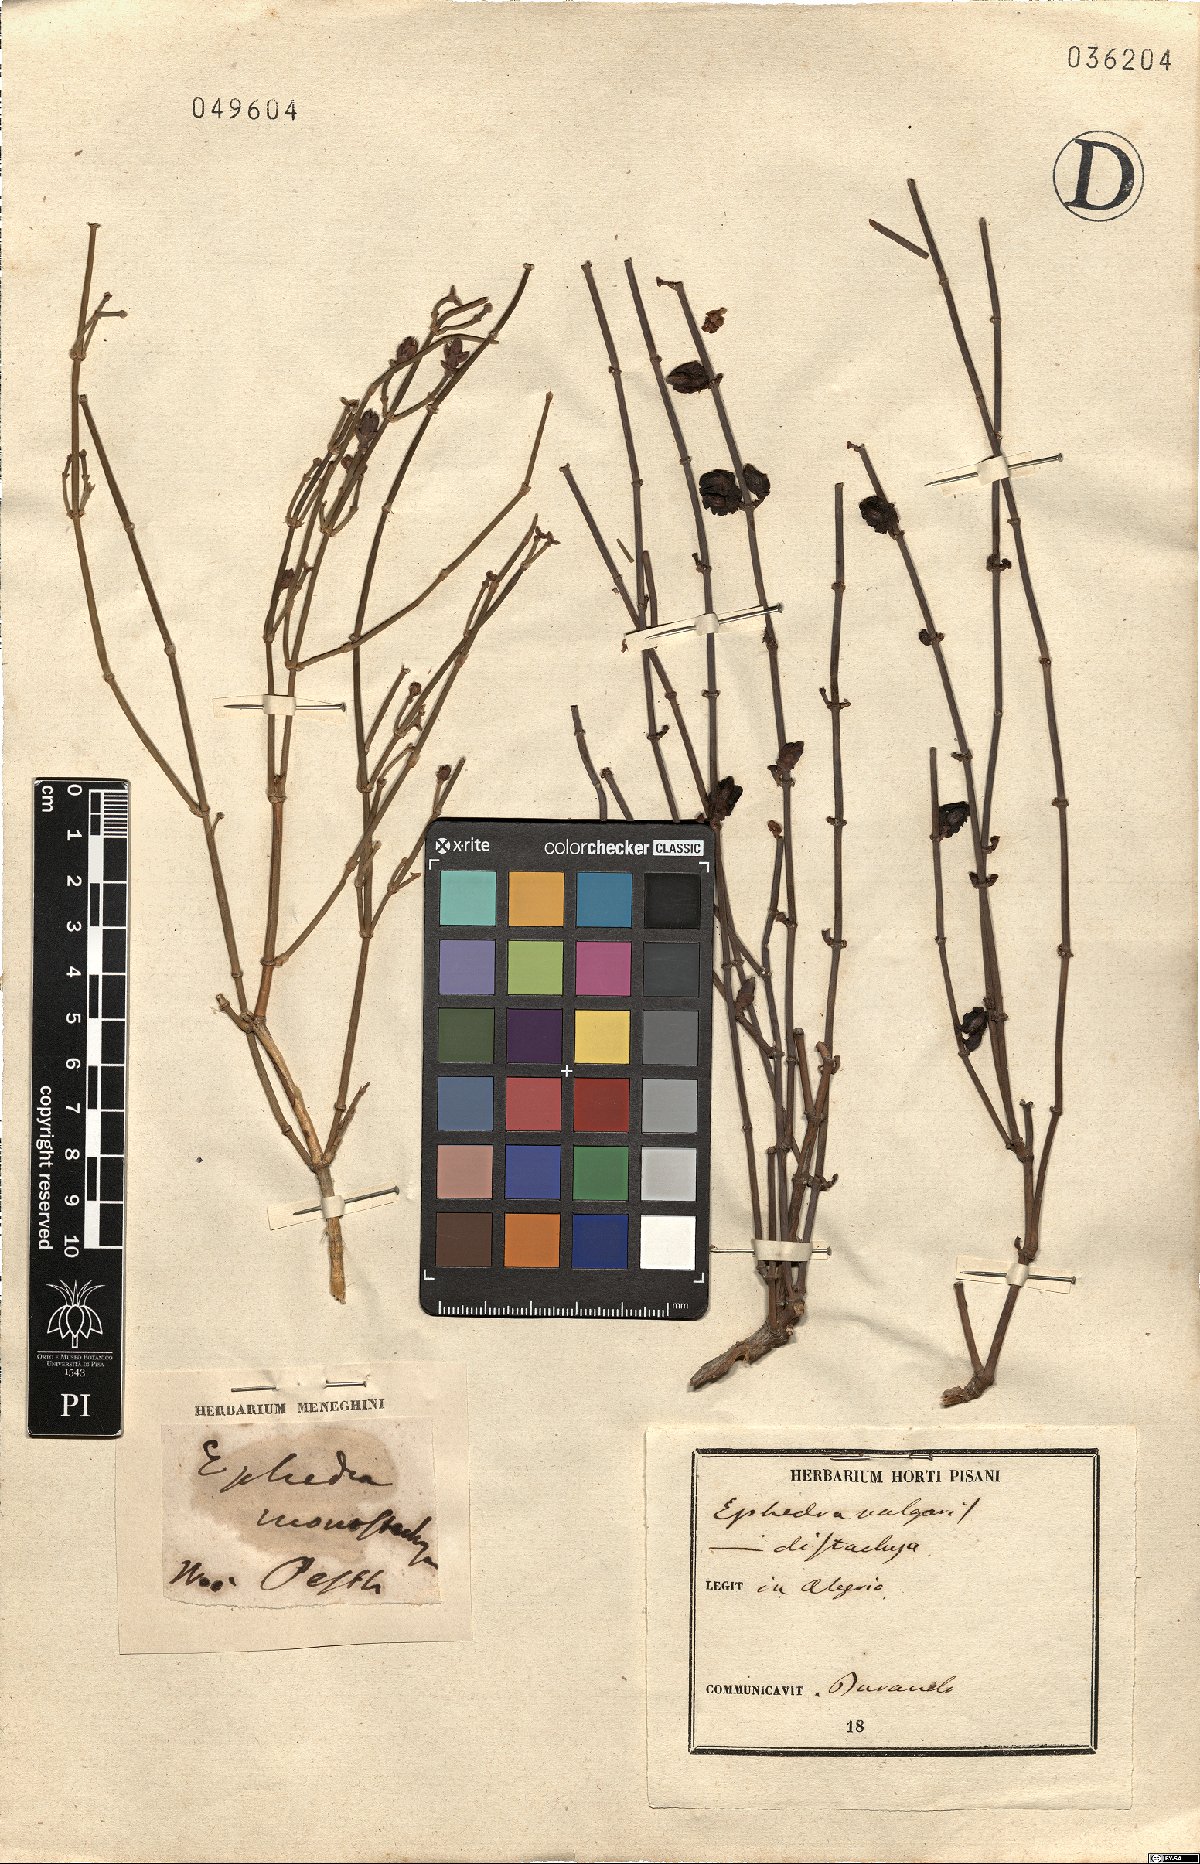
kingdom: Plantae
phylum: Tracheophyta
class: Gnetopsida
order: Ephedrales
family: Ephedraceae
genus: Ephedra
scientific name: Ephedra distachya
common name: Sea grape
